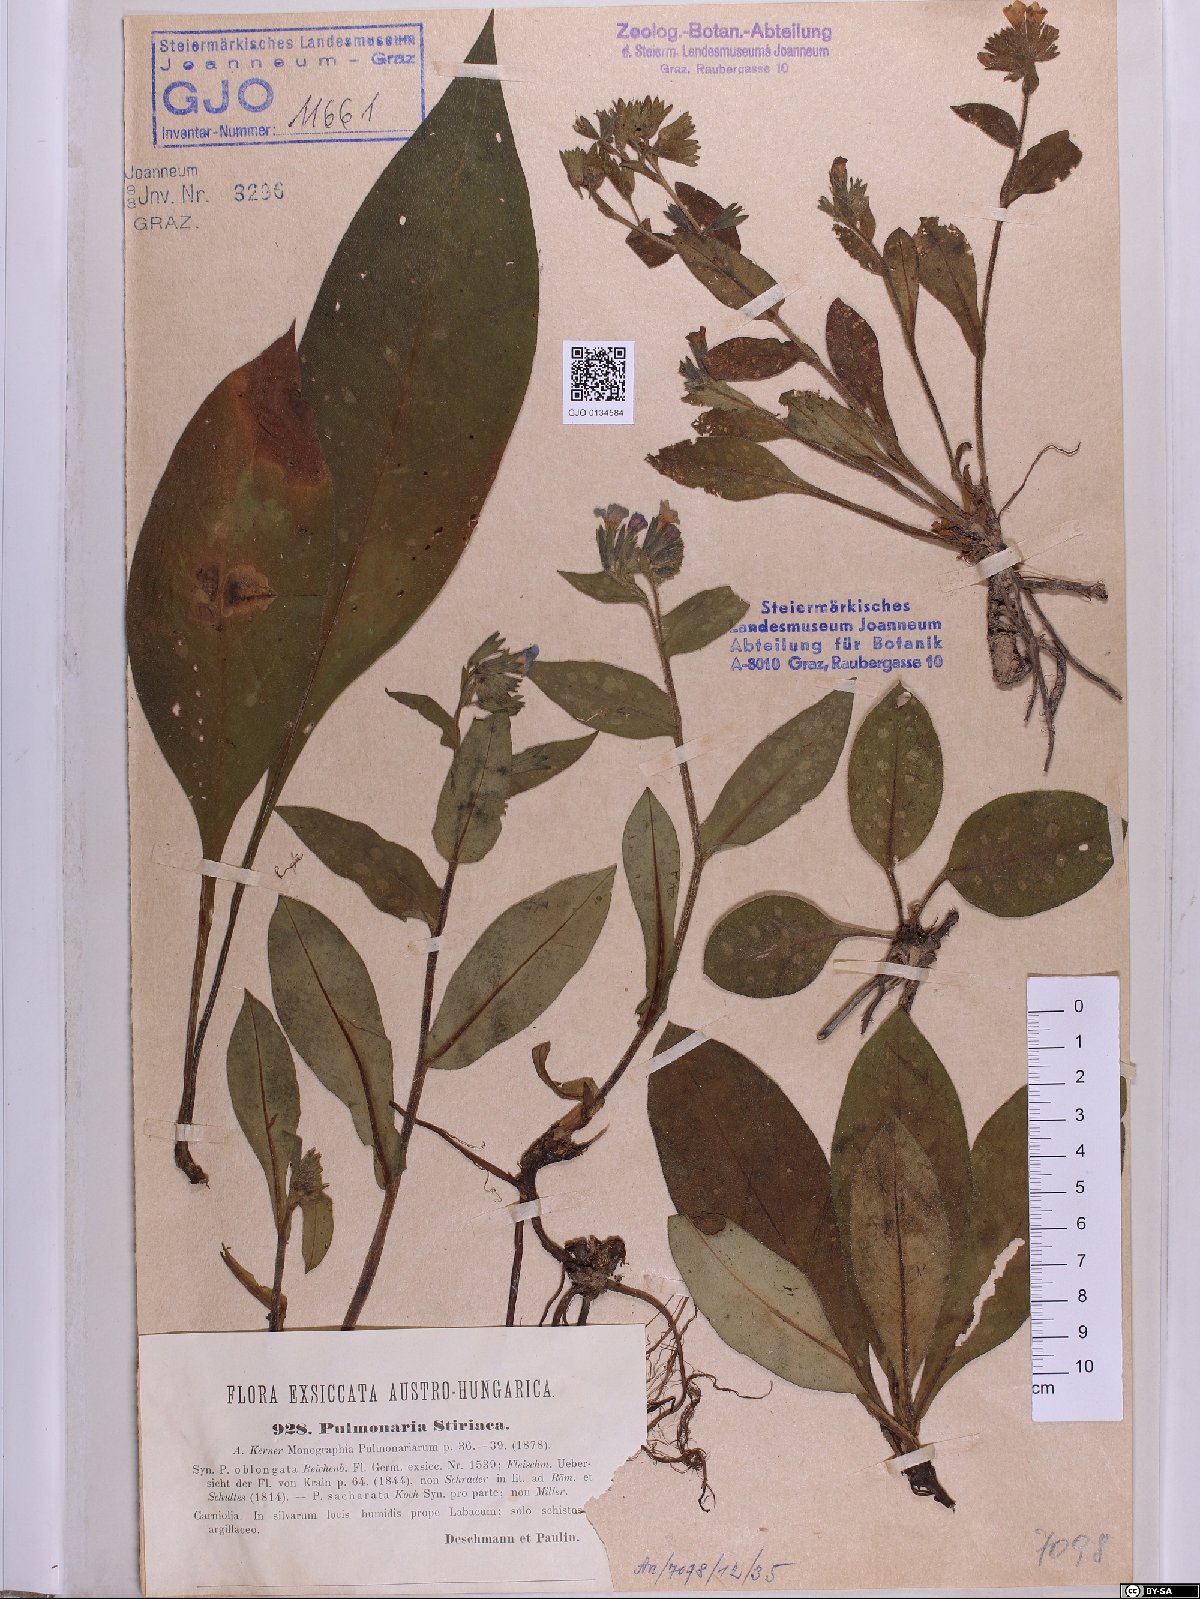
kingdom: Plantae
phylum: Tracheophyta
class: Magnoliopsida
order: Boraginales
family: Boraginaceae
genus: Pulmonaria
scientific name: Pulmonaria stiriaca
